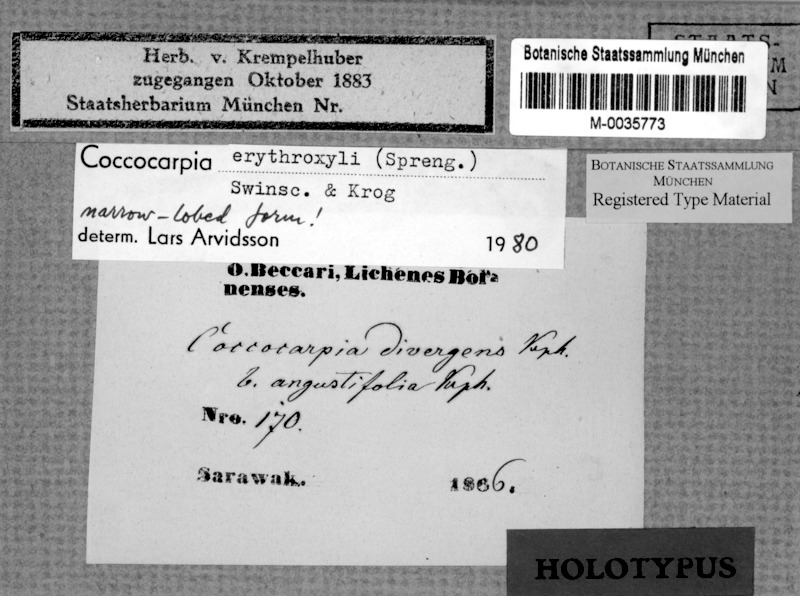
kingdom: Fungi
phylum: Ascomycota
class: Lecanoromycetes
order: Peltigerales
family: Coccocarpiaceae
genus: Coccocarpia
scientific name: Coccocarpia erythroxyli
